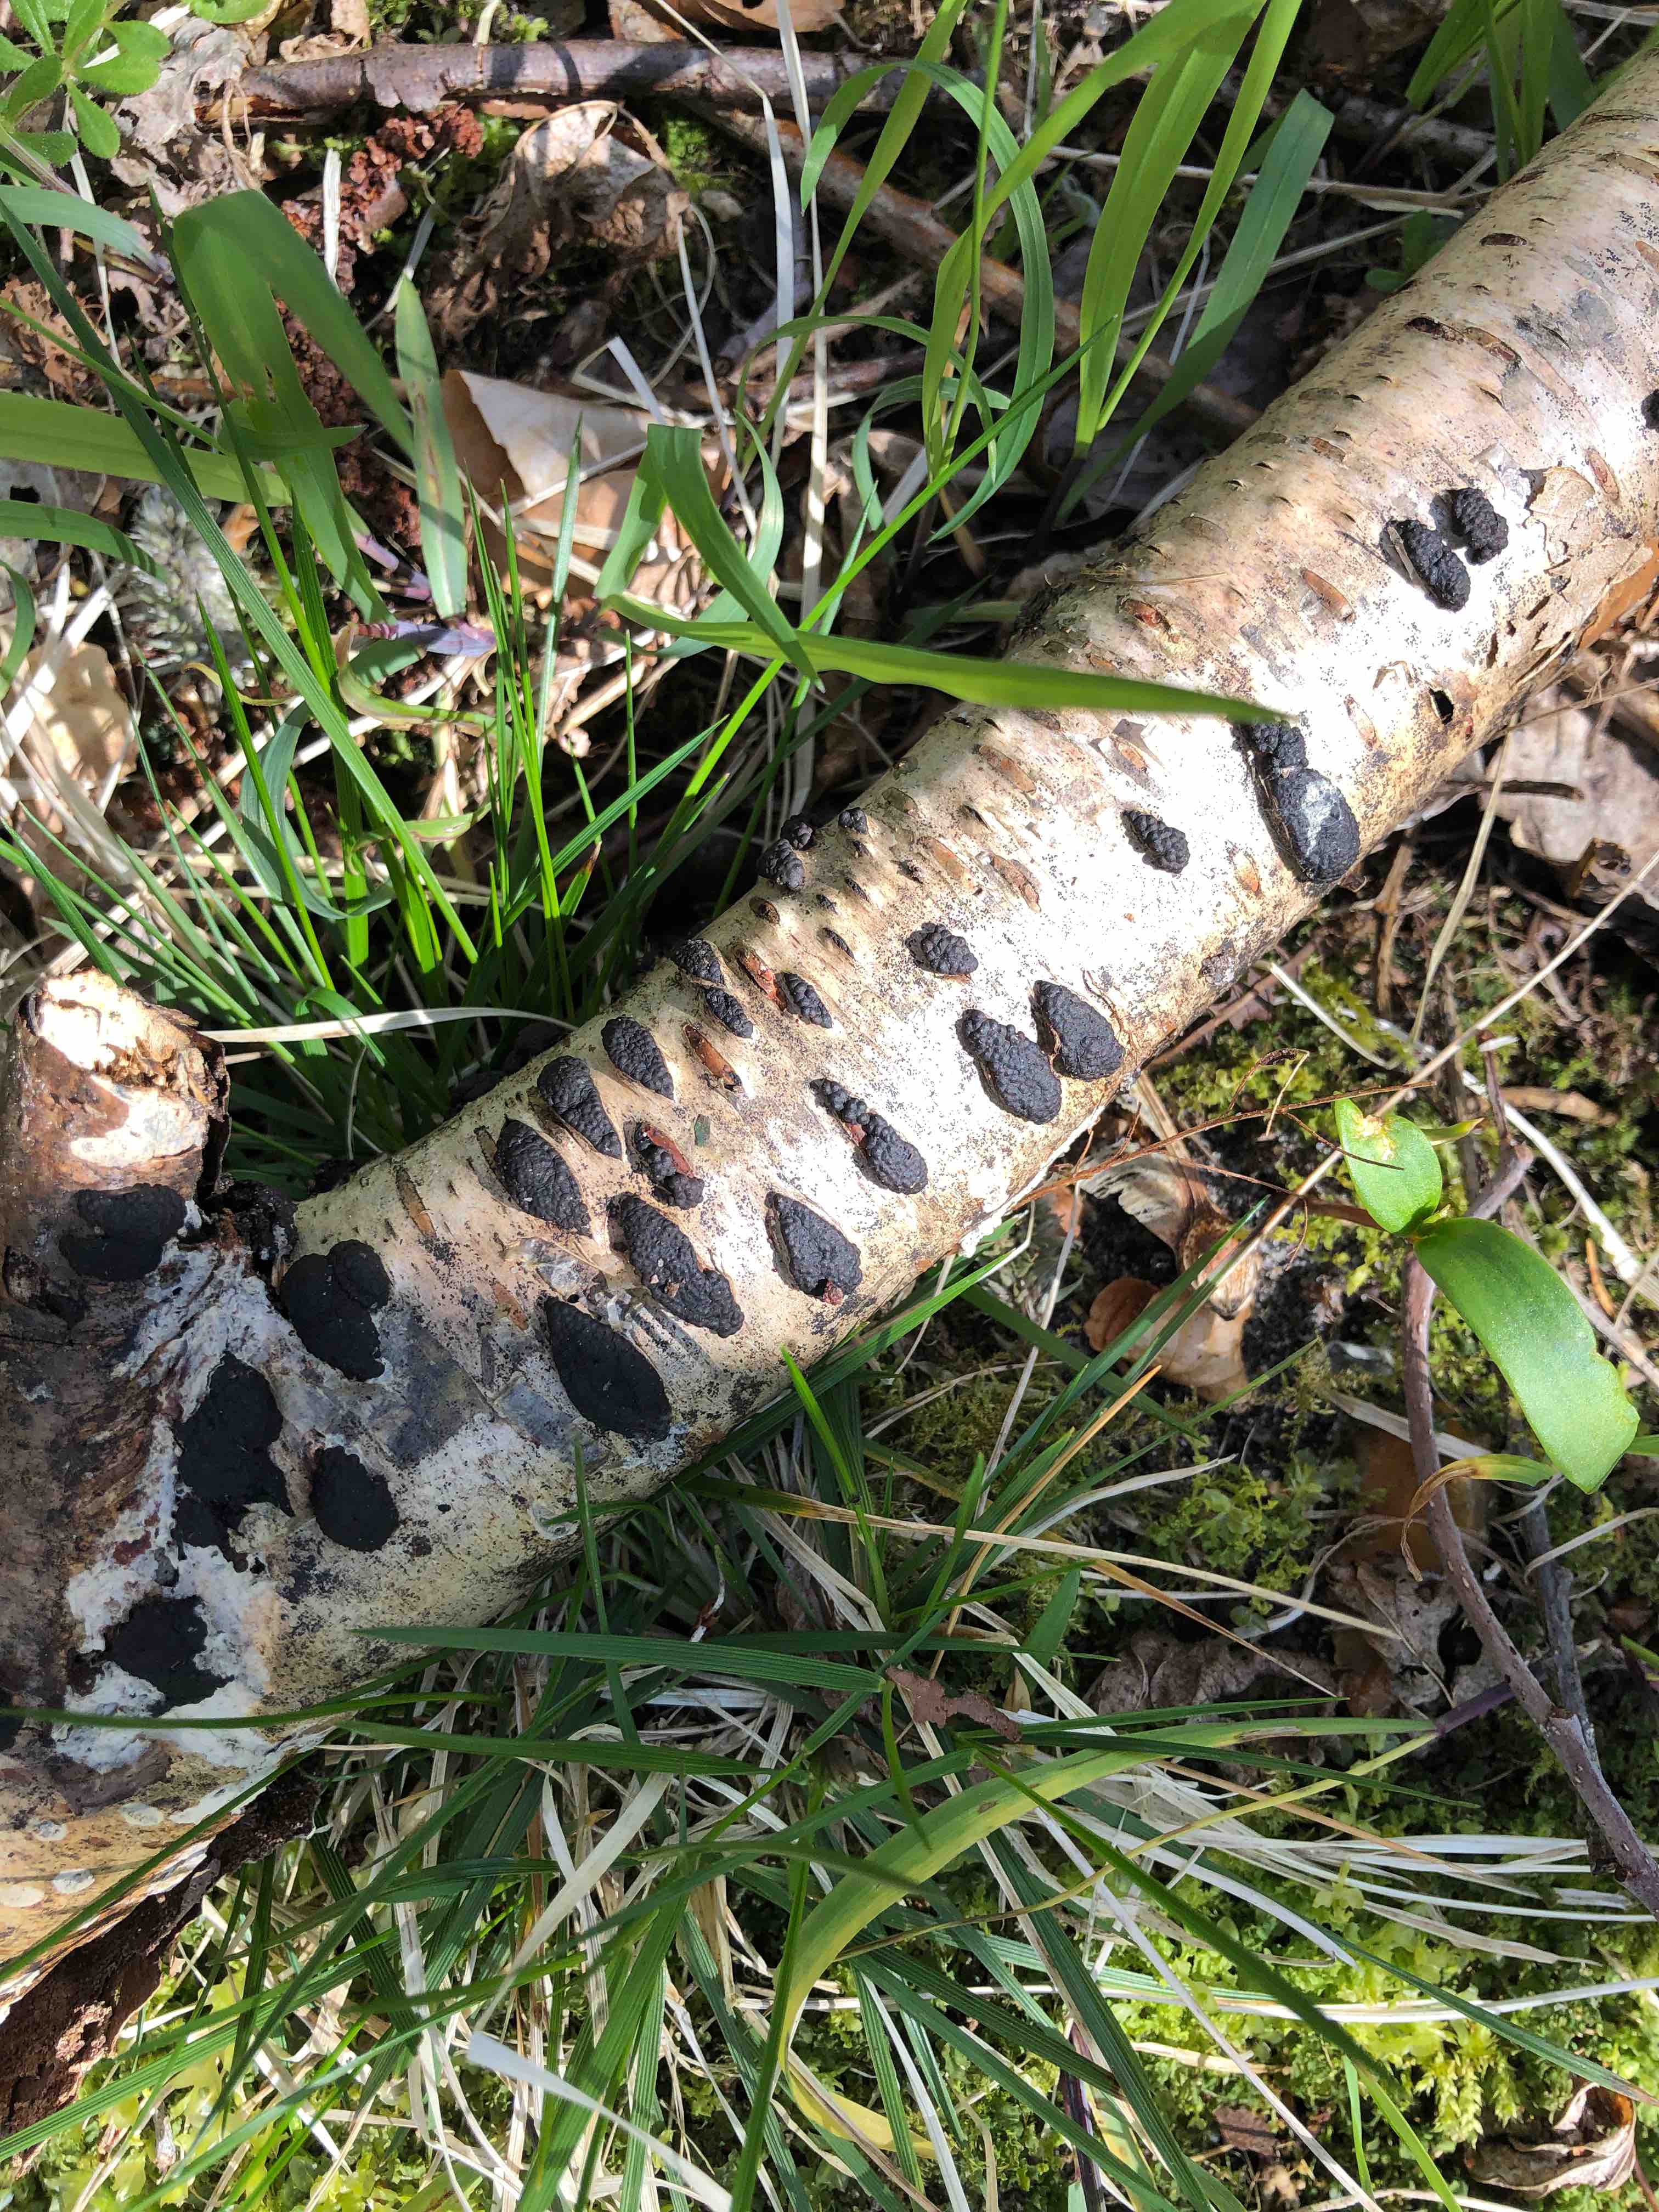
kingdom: Fungi
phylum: Ascomycota
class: Sordariomycetes
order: Xylariales
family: Hypoxylaceae
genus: Jackrogersella
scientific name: Jackrogersella multiformis
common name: foranderlig kulbær
